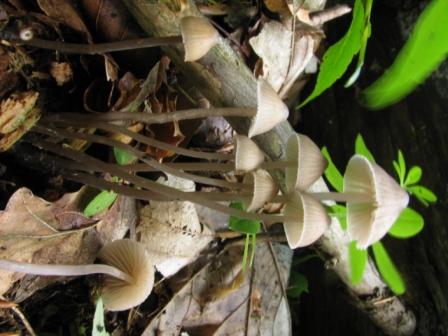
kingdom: Fungi
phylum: Basidiomycota
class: Agaricomycetes
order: Agaricales
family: Mycenaceae
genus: Mycena
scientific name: Mycena abramsii
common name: sommer-huesvamp
